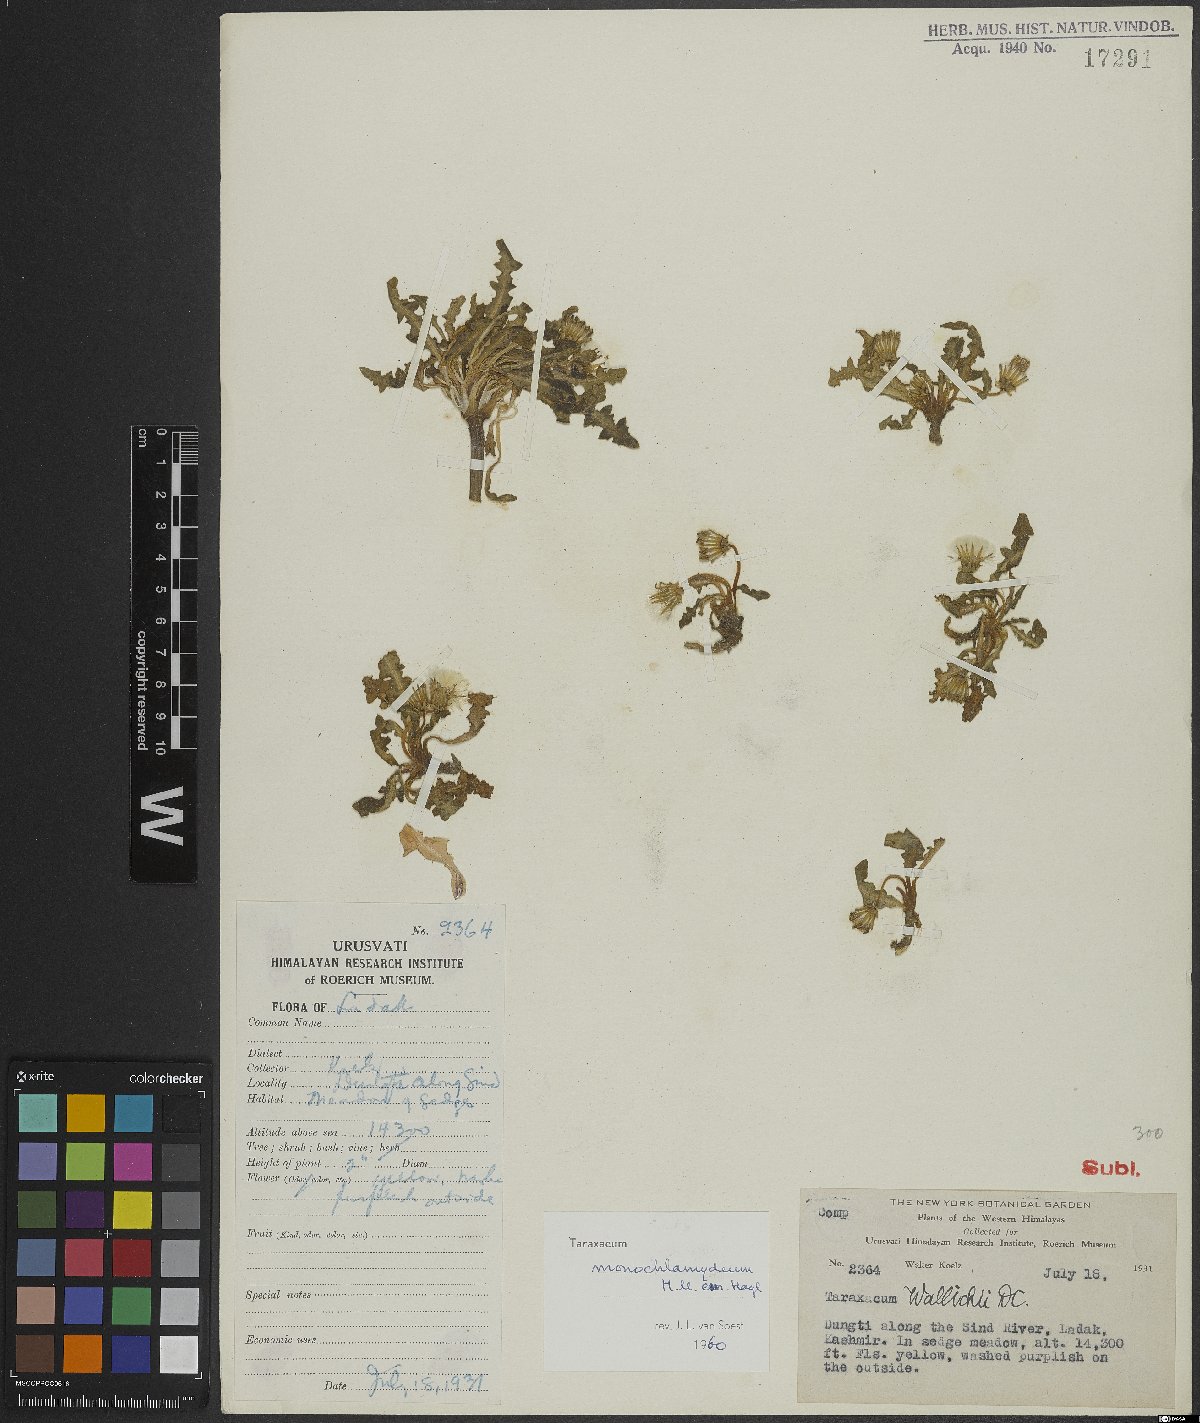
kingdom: Plantae
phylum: Tracheophyta
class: Magnoliopsida
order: Asterales
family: Asteraceae
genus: Taraxacum
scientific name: Taraxacum monochlamydeum
